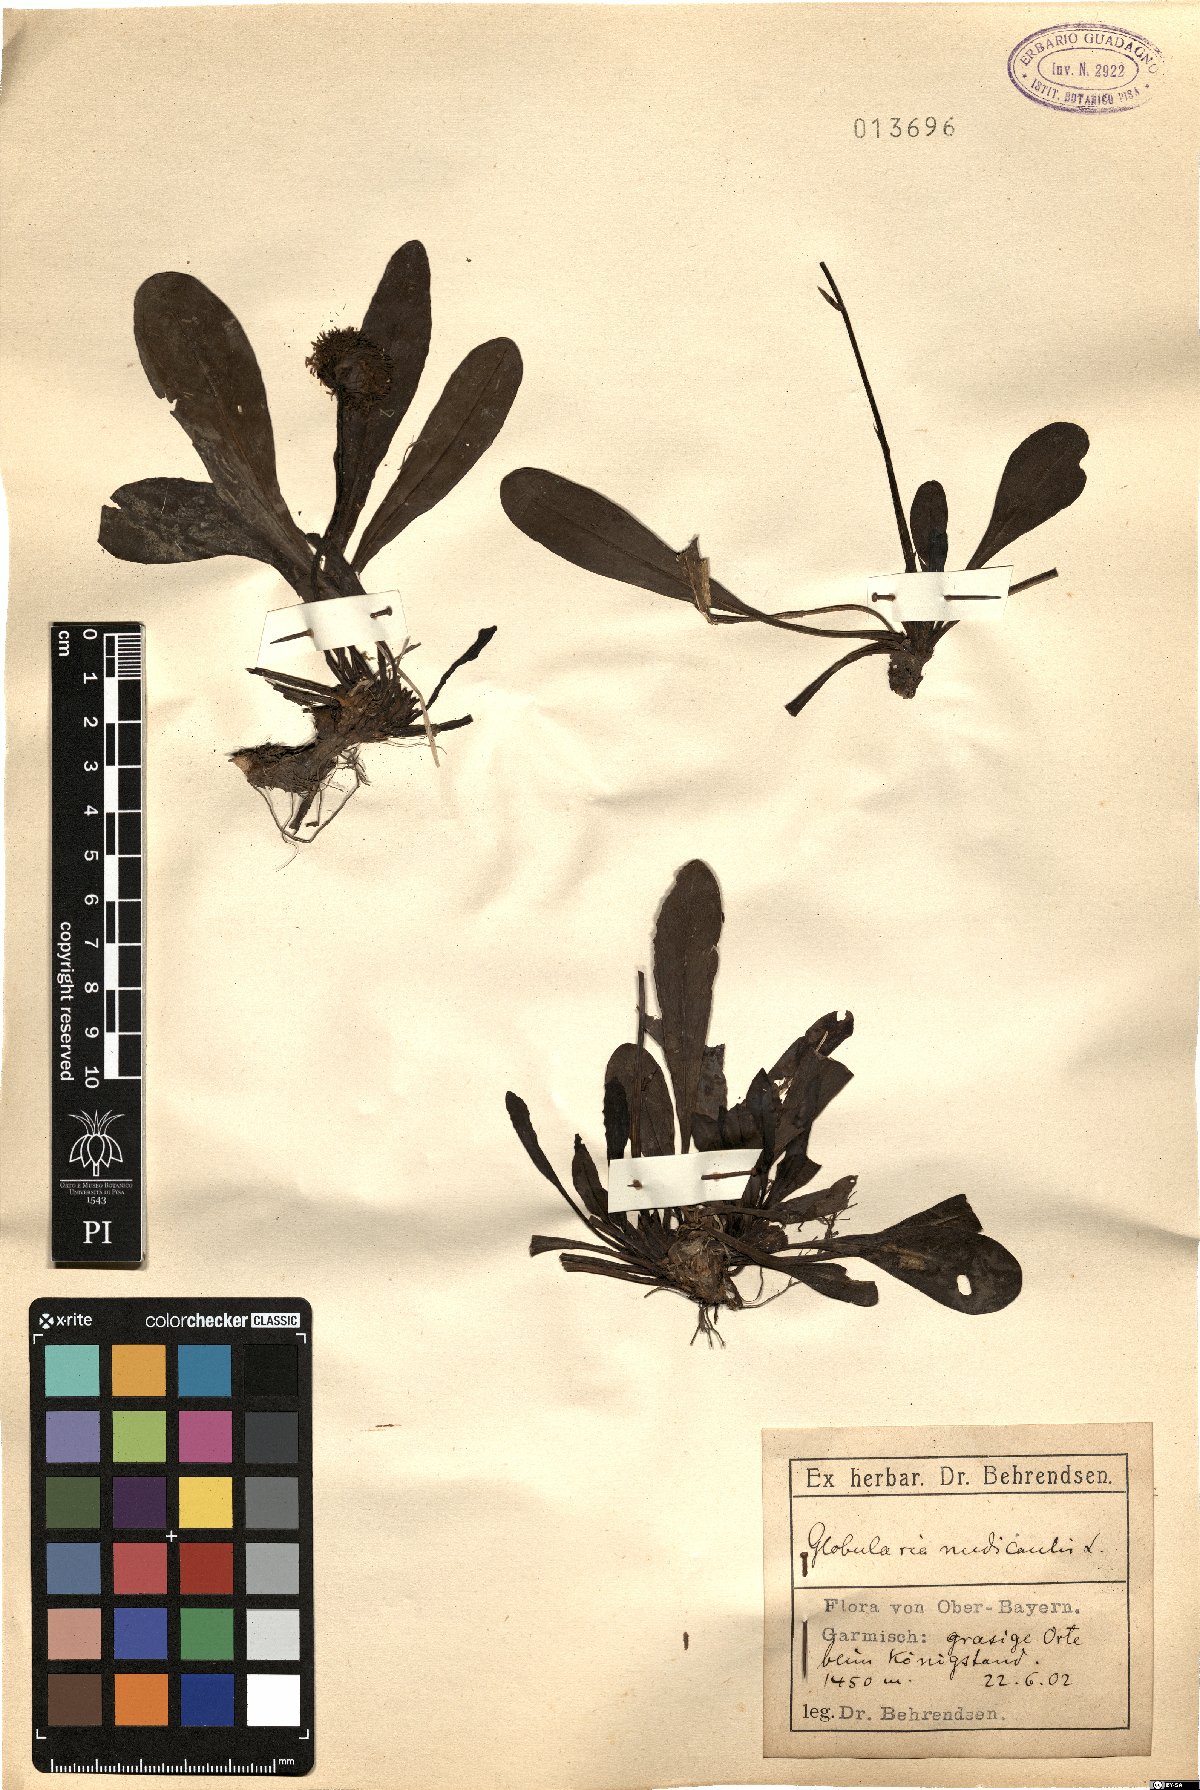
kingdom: Plantae
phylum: Tracheophyta
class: Magnoliopsida
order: Lamiales
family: Plantaginaceae
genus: Globularia
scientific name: Globularia nudicaulis
